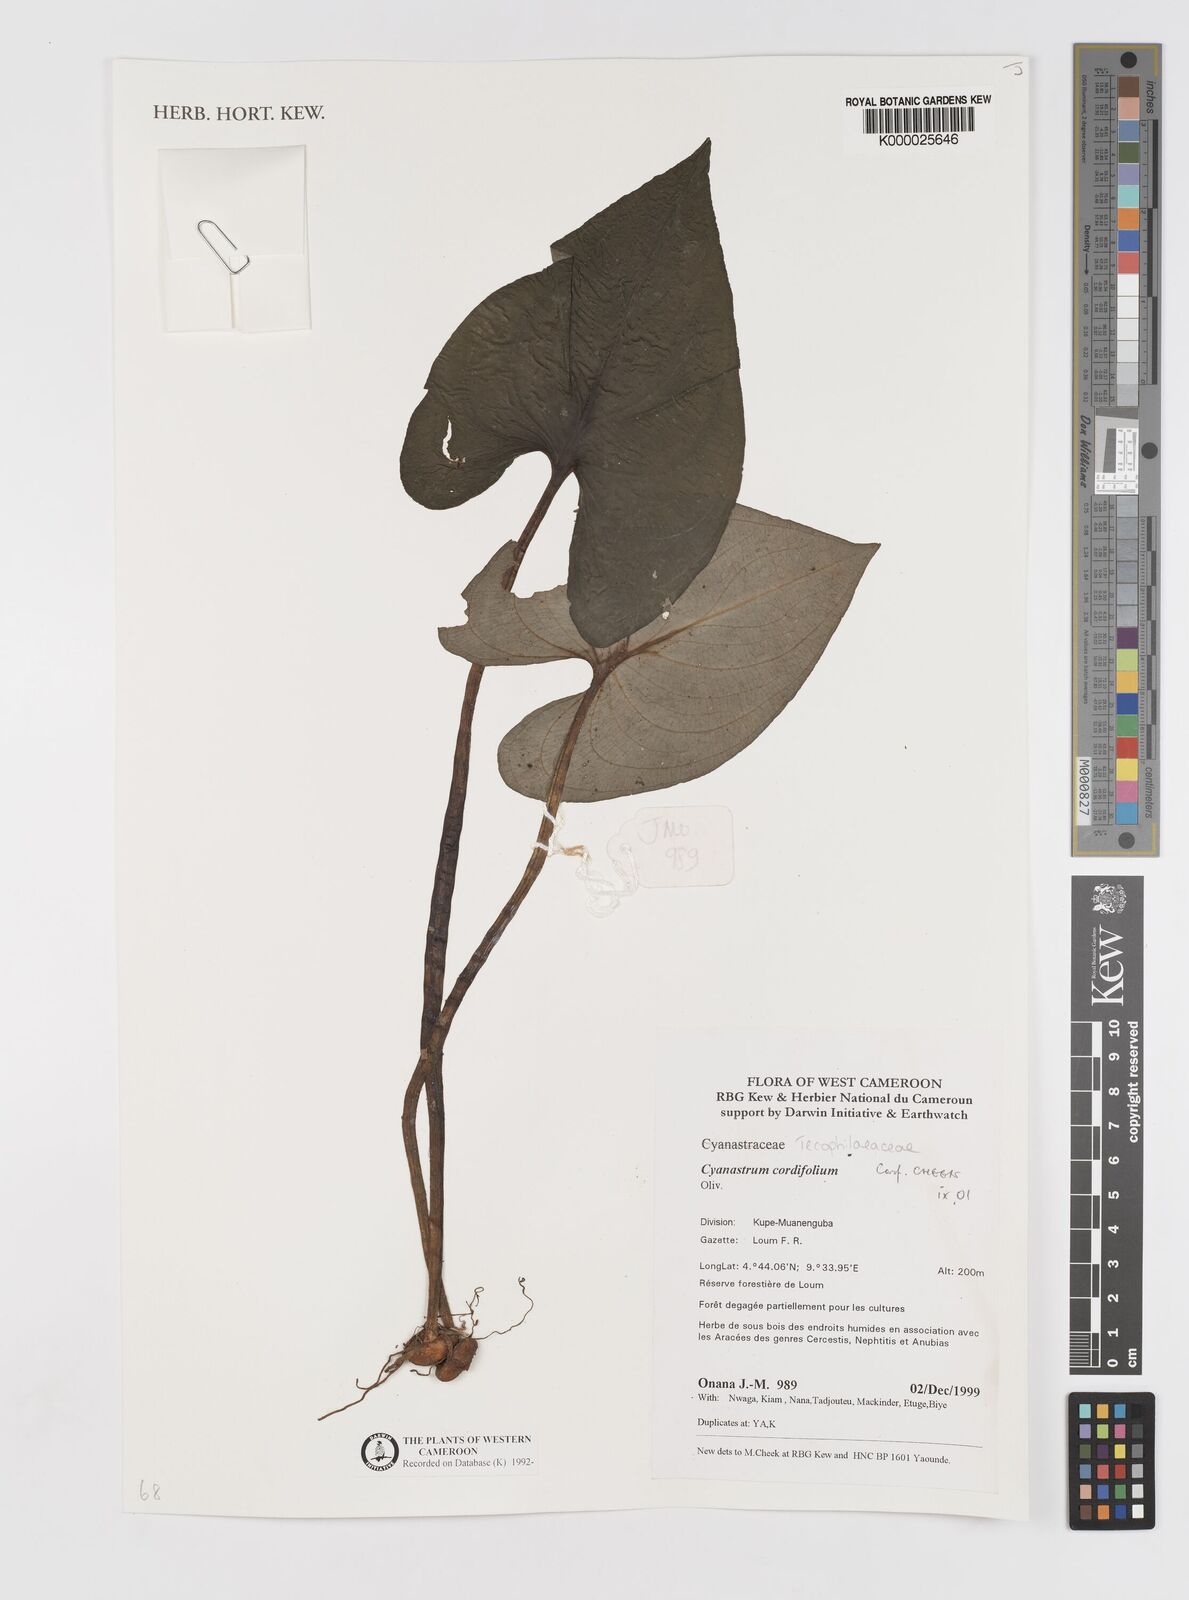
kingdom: Plantae
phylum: Tracheophyta
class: Liliopsida
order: Asparagales
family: Tecophilaeaceae
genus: Cyanastrum
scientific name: Cyanastrum cordifolium
